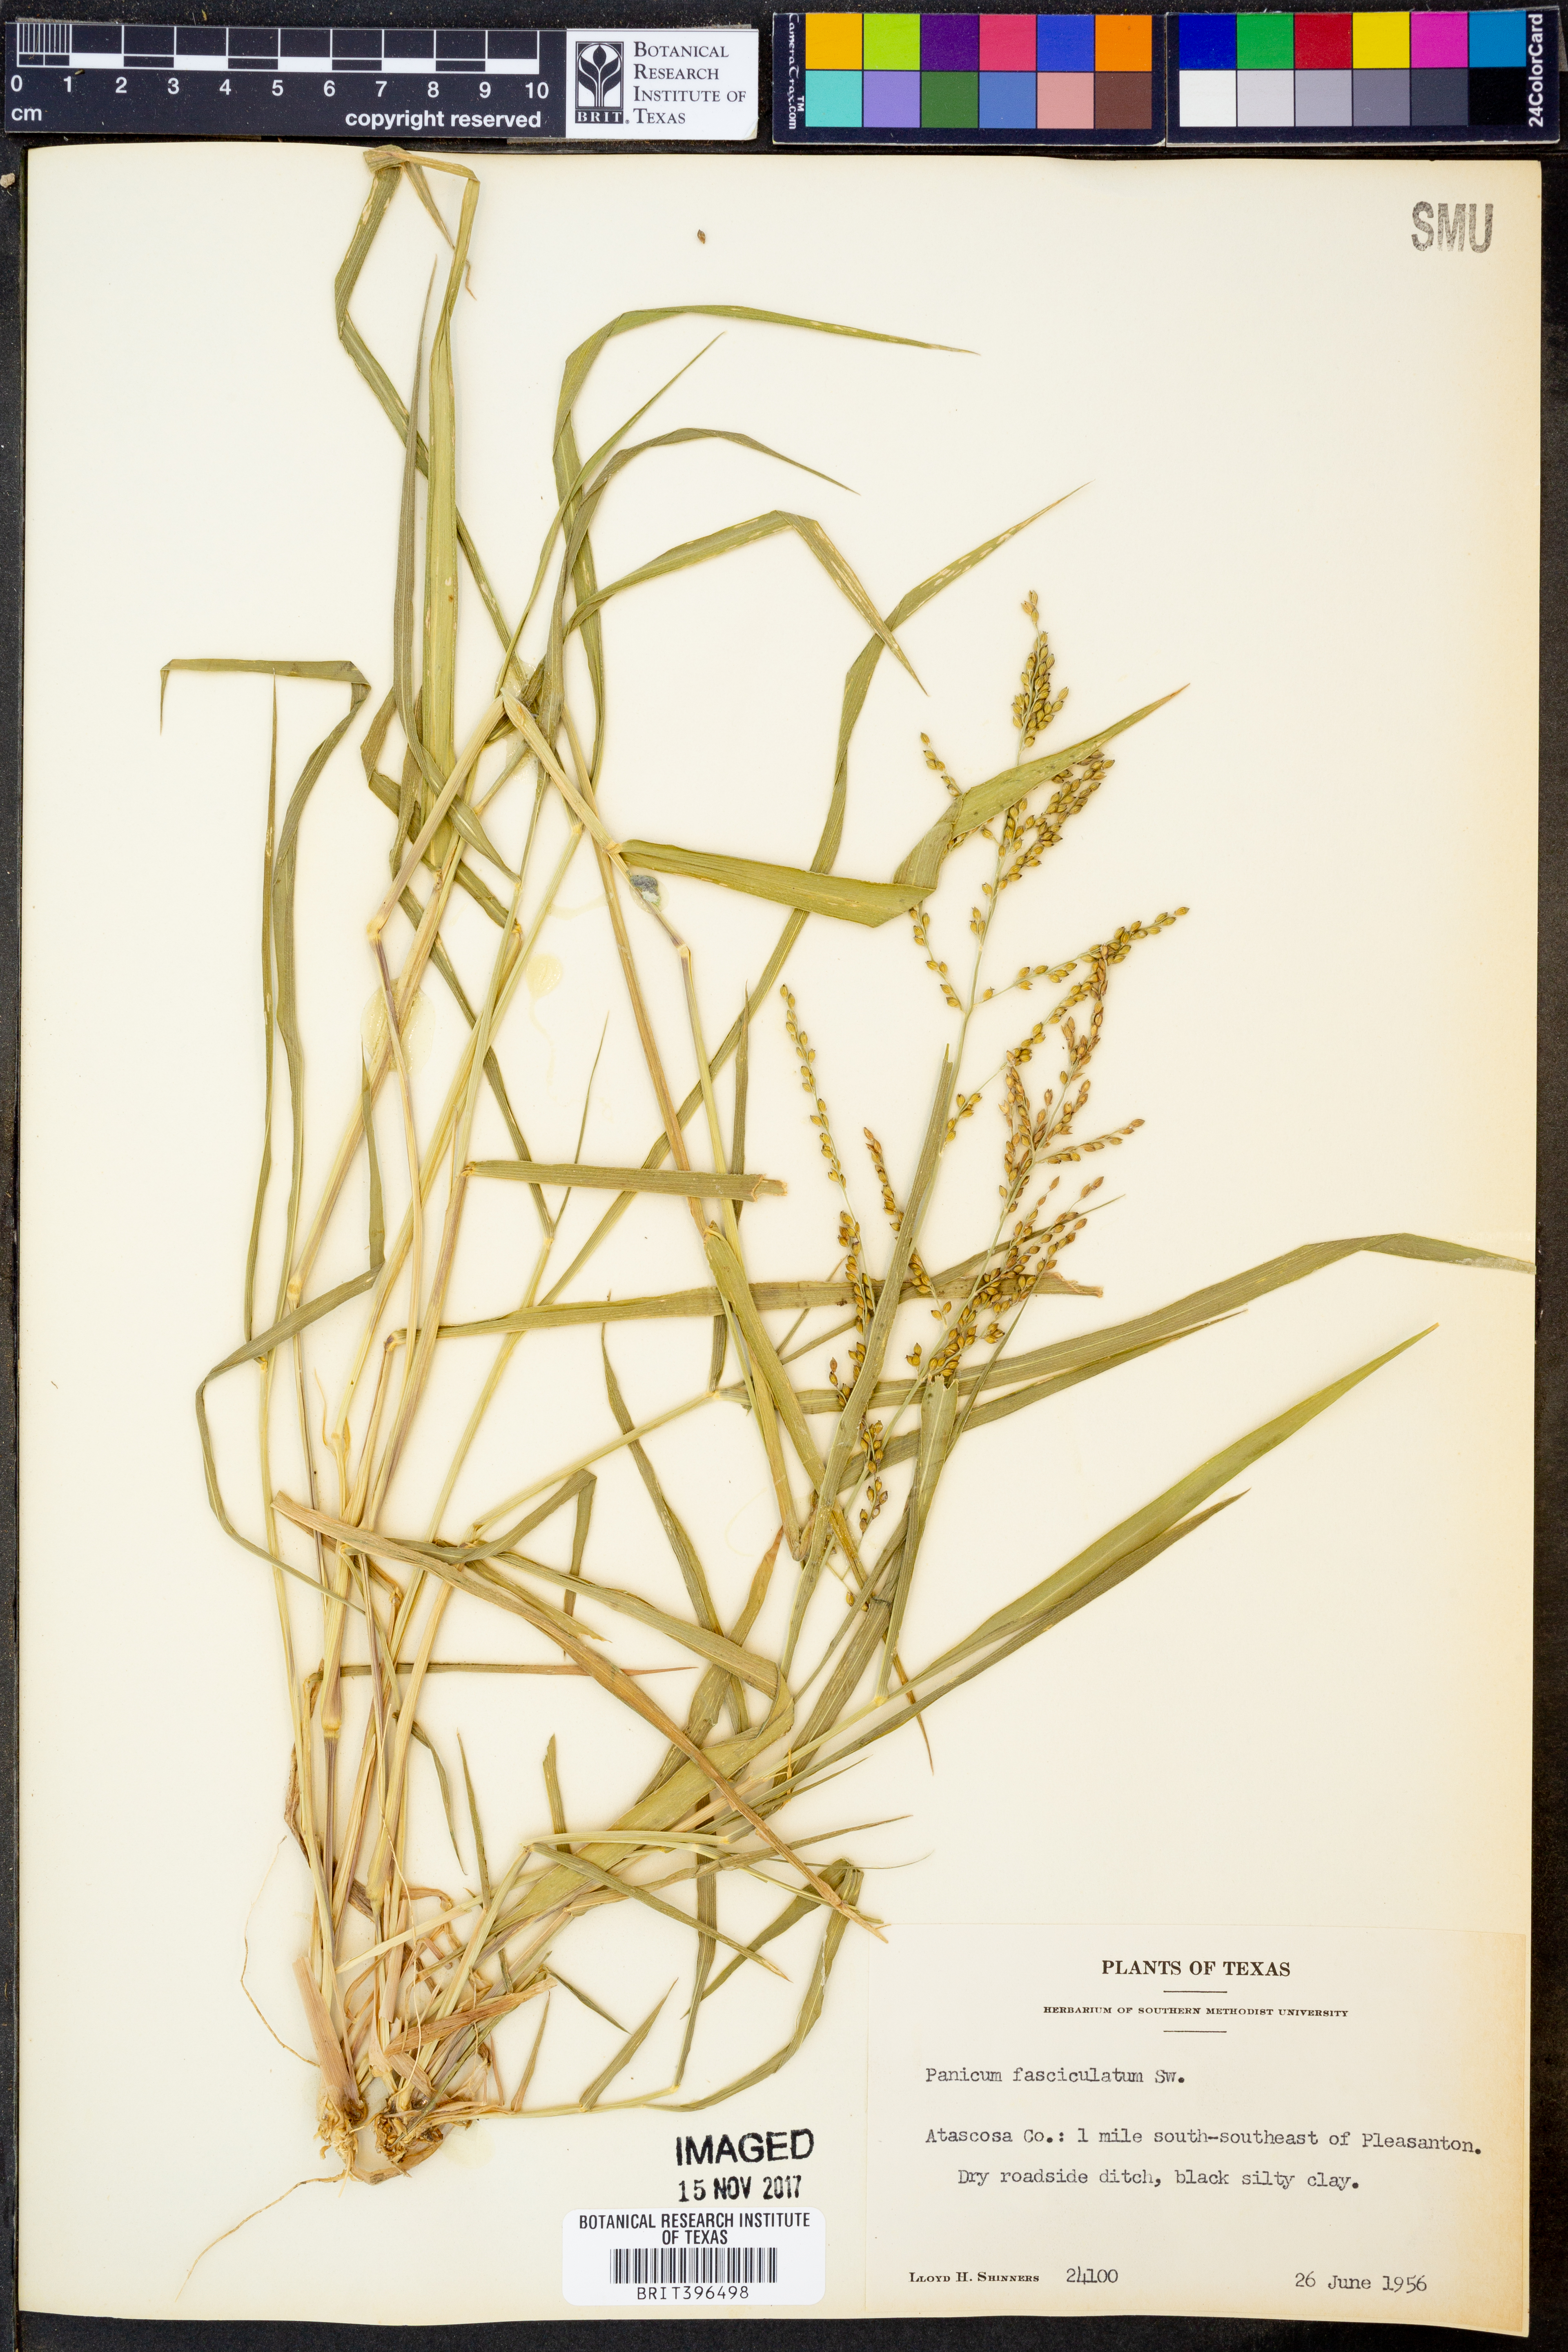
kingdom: Plantae
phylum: Tracheophyta
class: Liliopsida
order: Poales
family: Poaceae
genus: Urochloa
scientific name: Urochloa fusca
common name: Browntop signal grass
